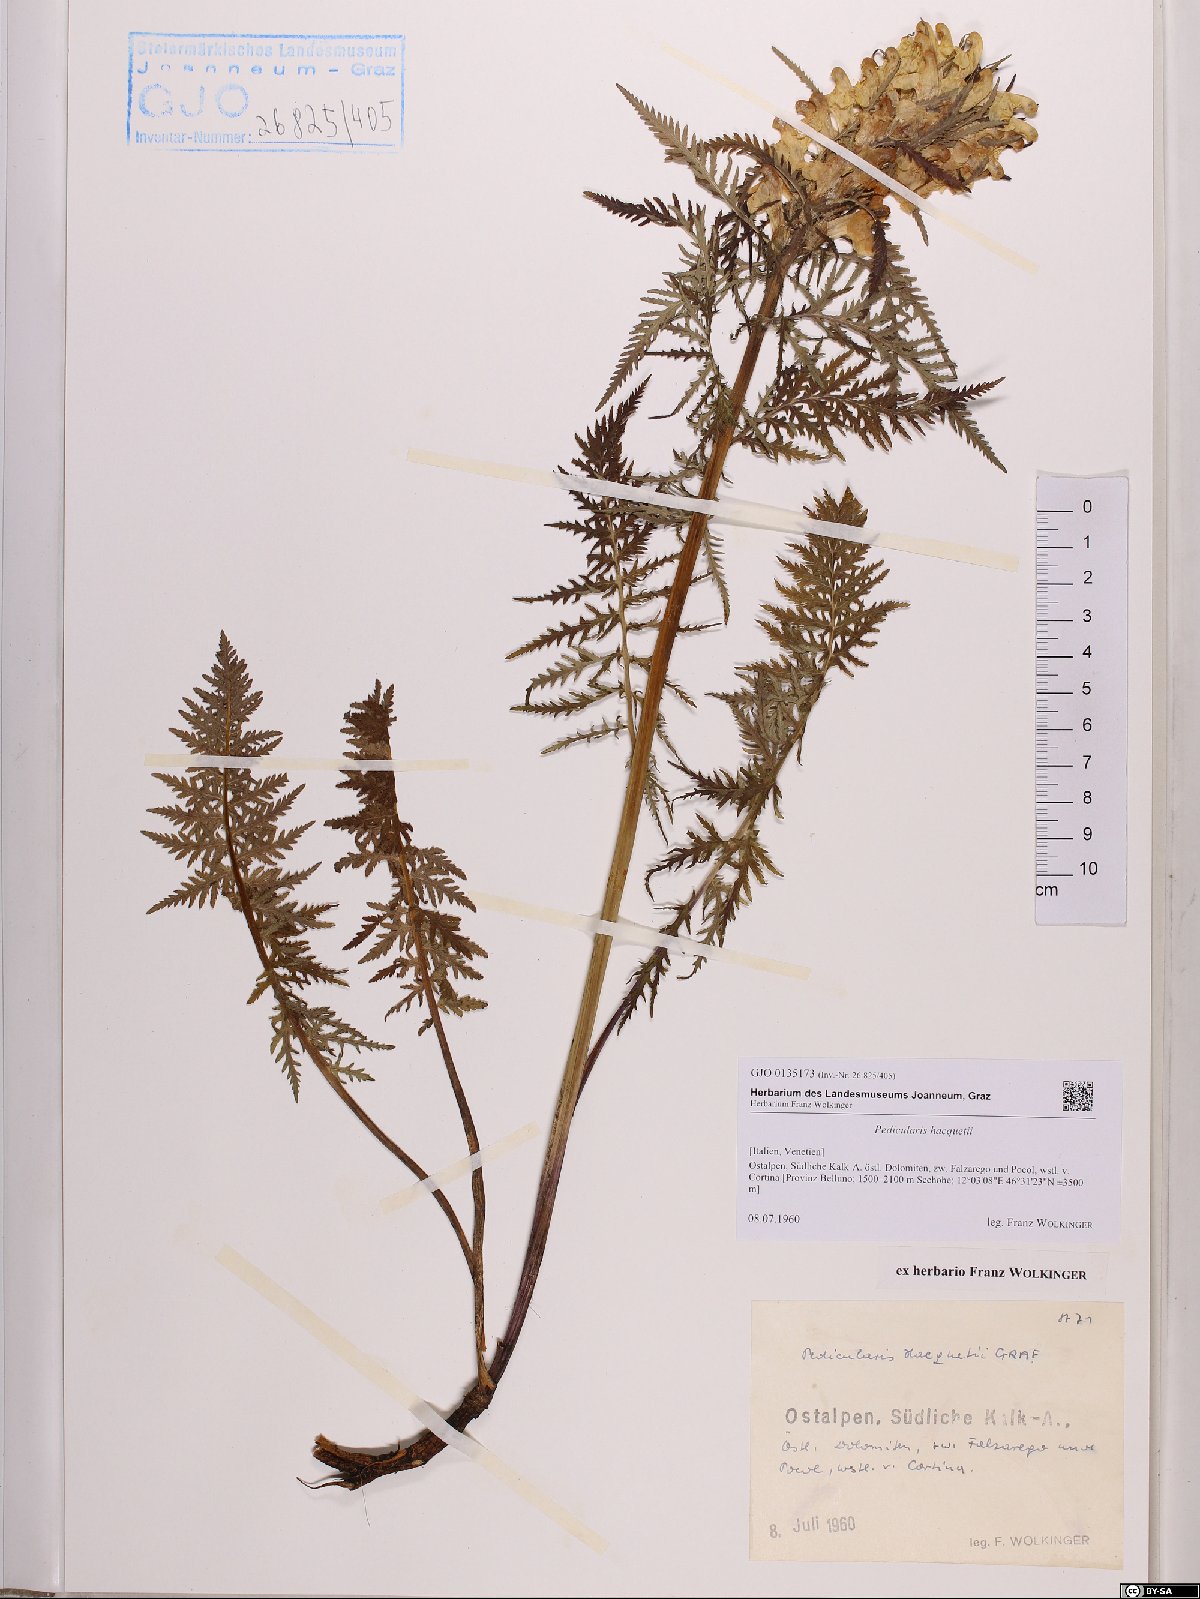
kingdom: Plantae
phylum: Tracheophyta
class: Magnoliopsida
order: Lamiales
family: Orobanchaceae
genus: Pedicularis
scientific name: Pedicularis hacquetii
